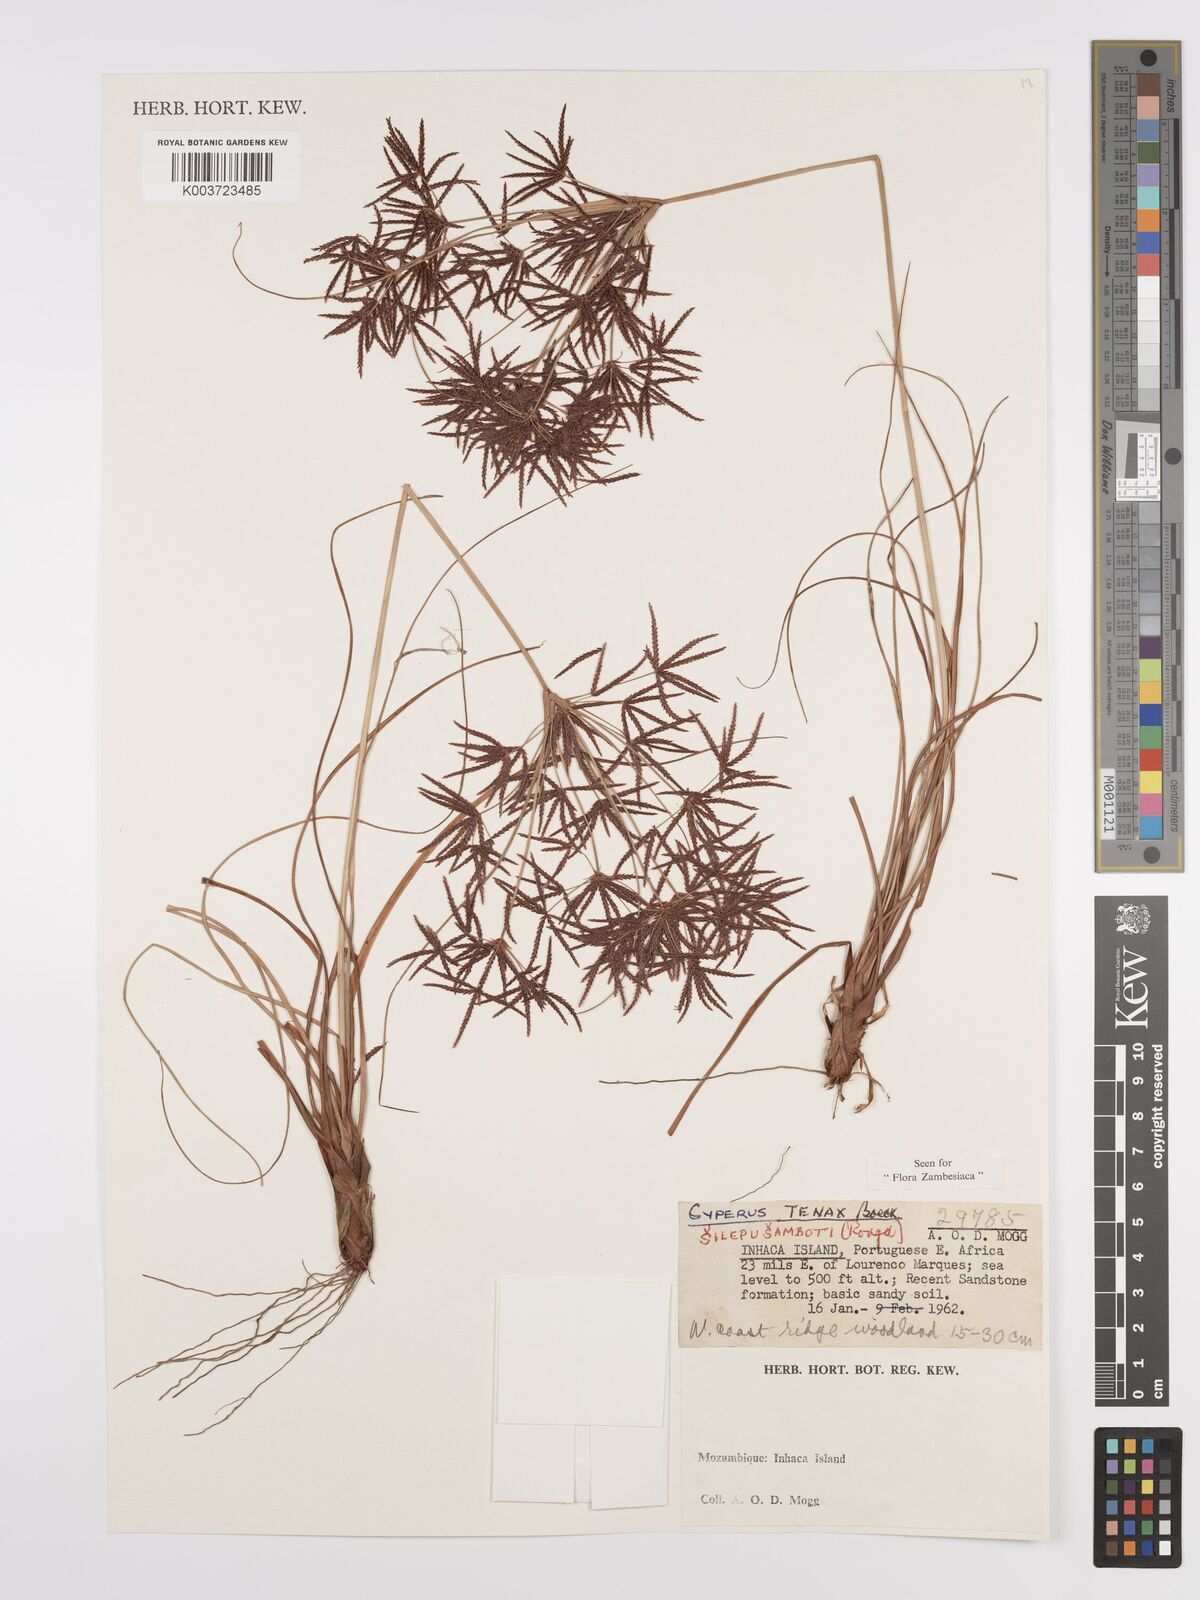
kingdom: Plantae
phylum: Tracheophyta
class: Liliopsida
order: Poales
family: Cyperaceae
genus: Cyperus
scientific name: Cyperus tenax
